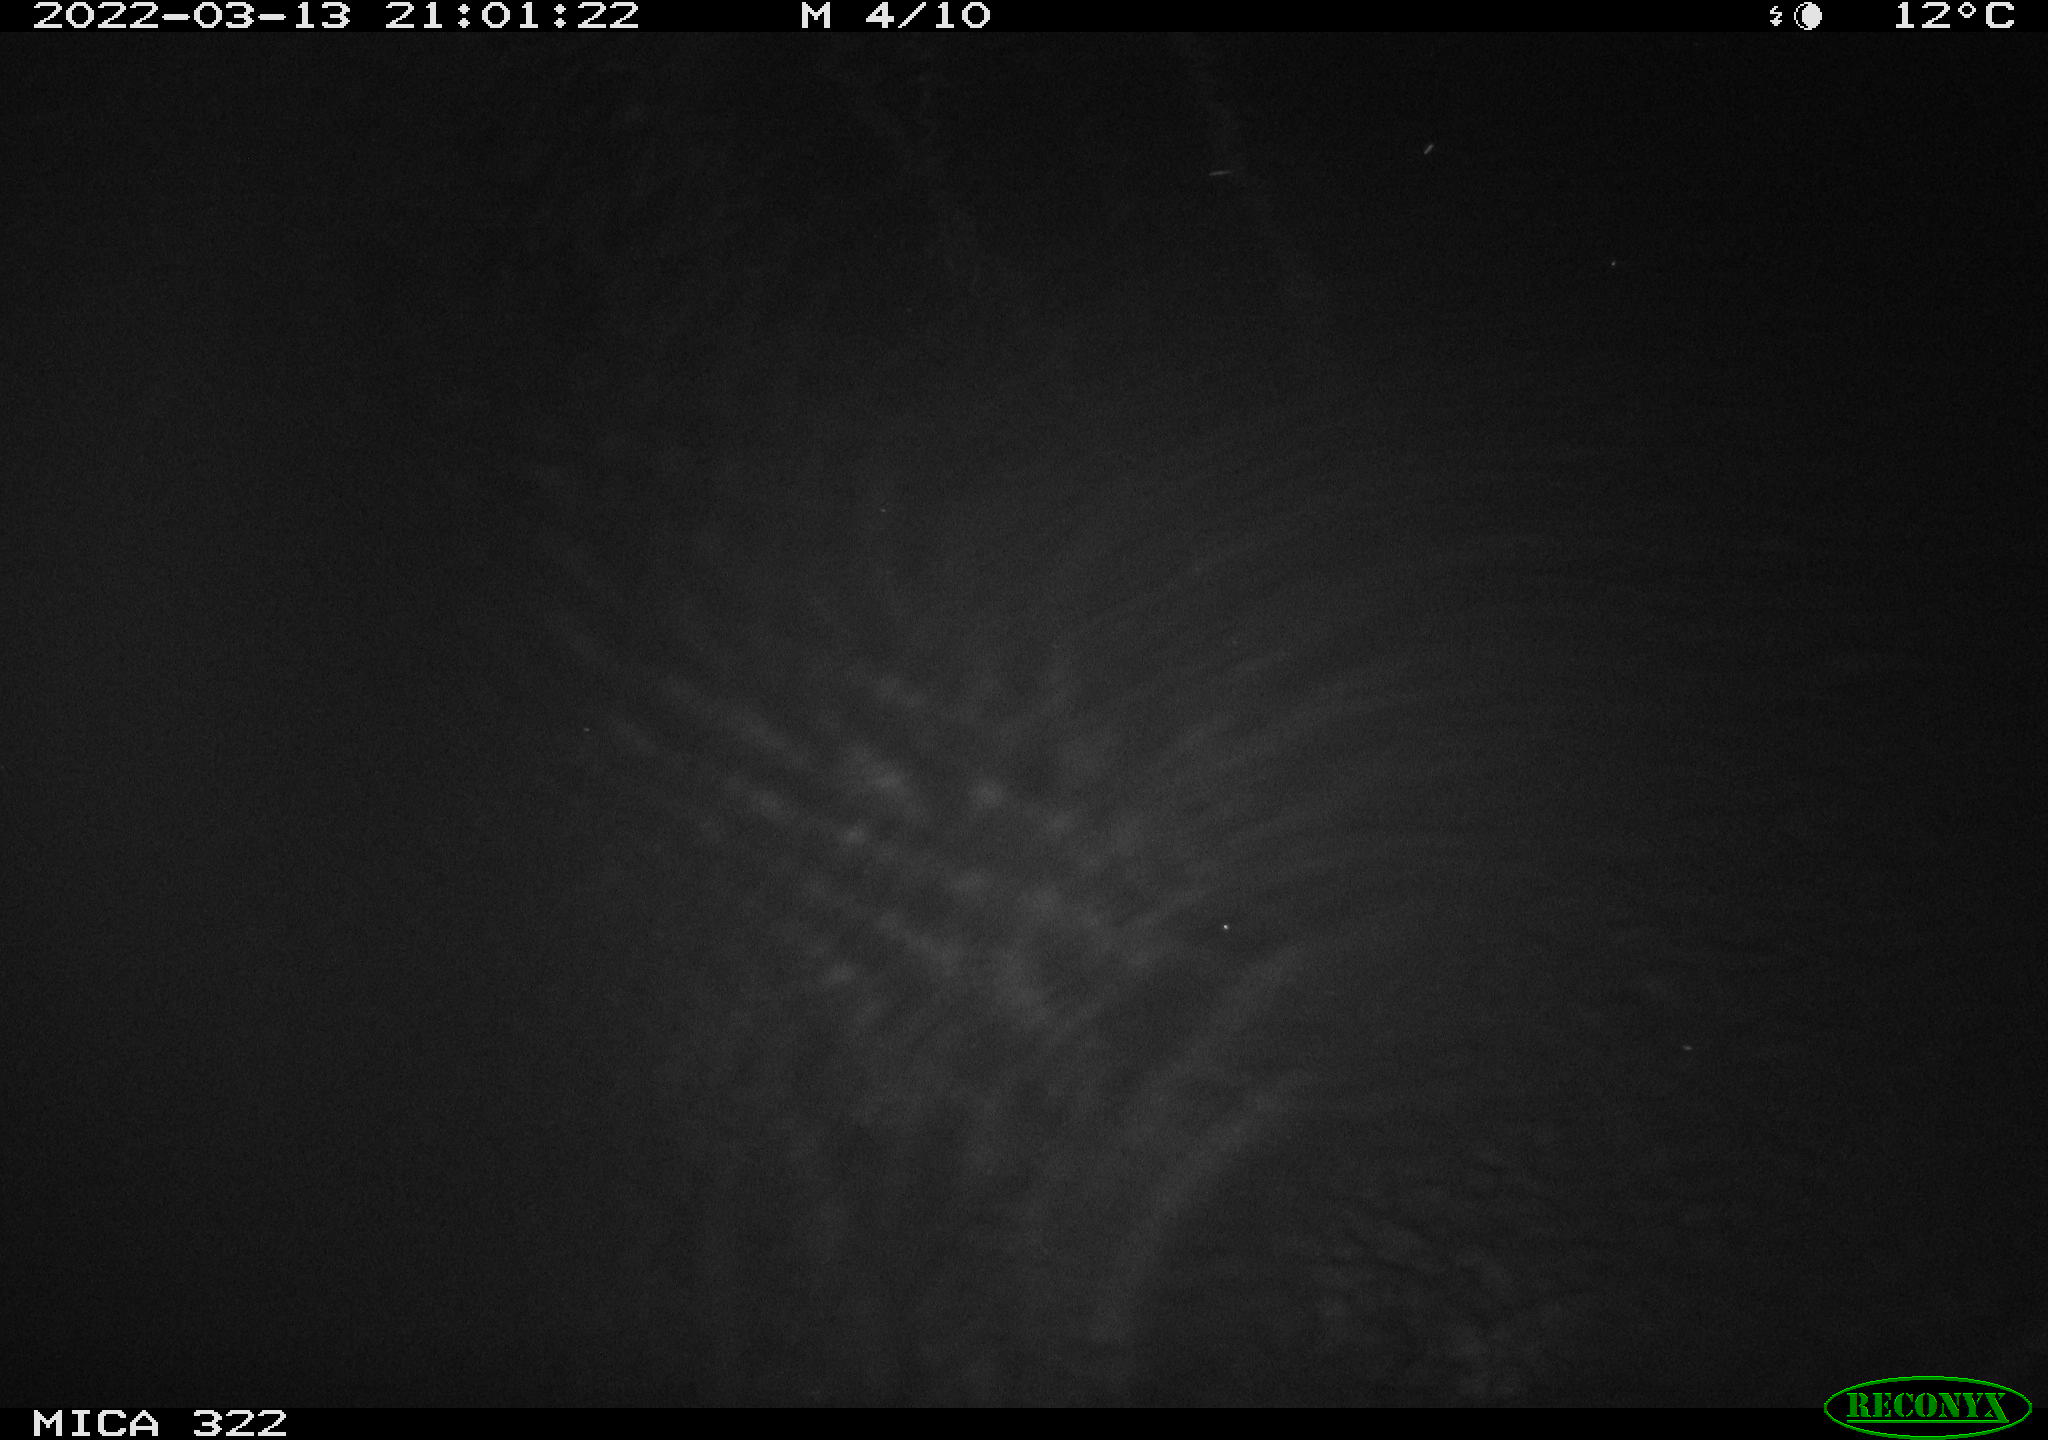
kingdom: Animalia
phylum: Chordata
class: Mammalia
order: Rodentia
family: Muridae
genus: Rattus
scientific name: Rattus norvegicus
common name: Brown rat
